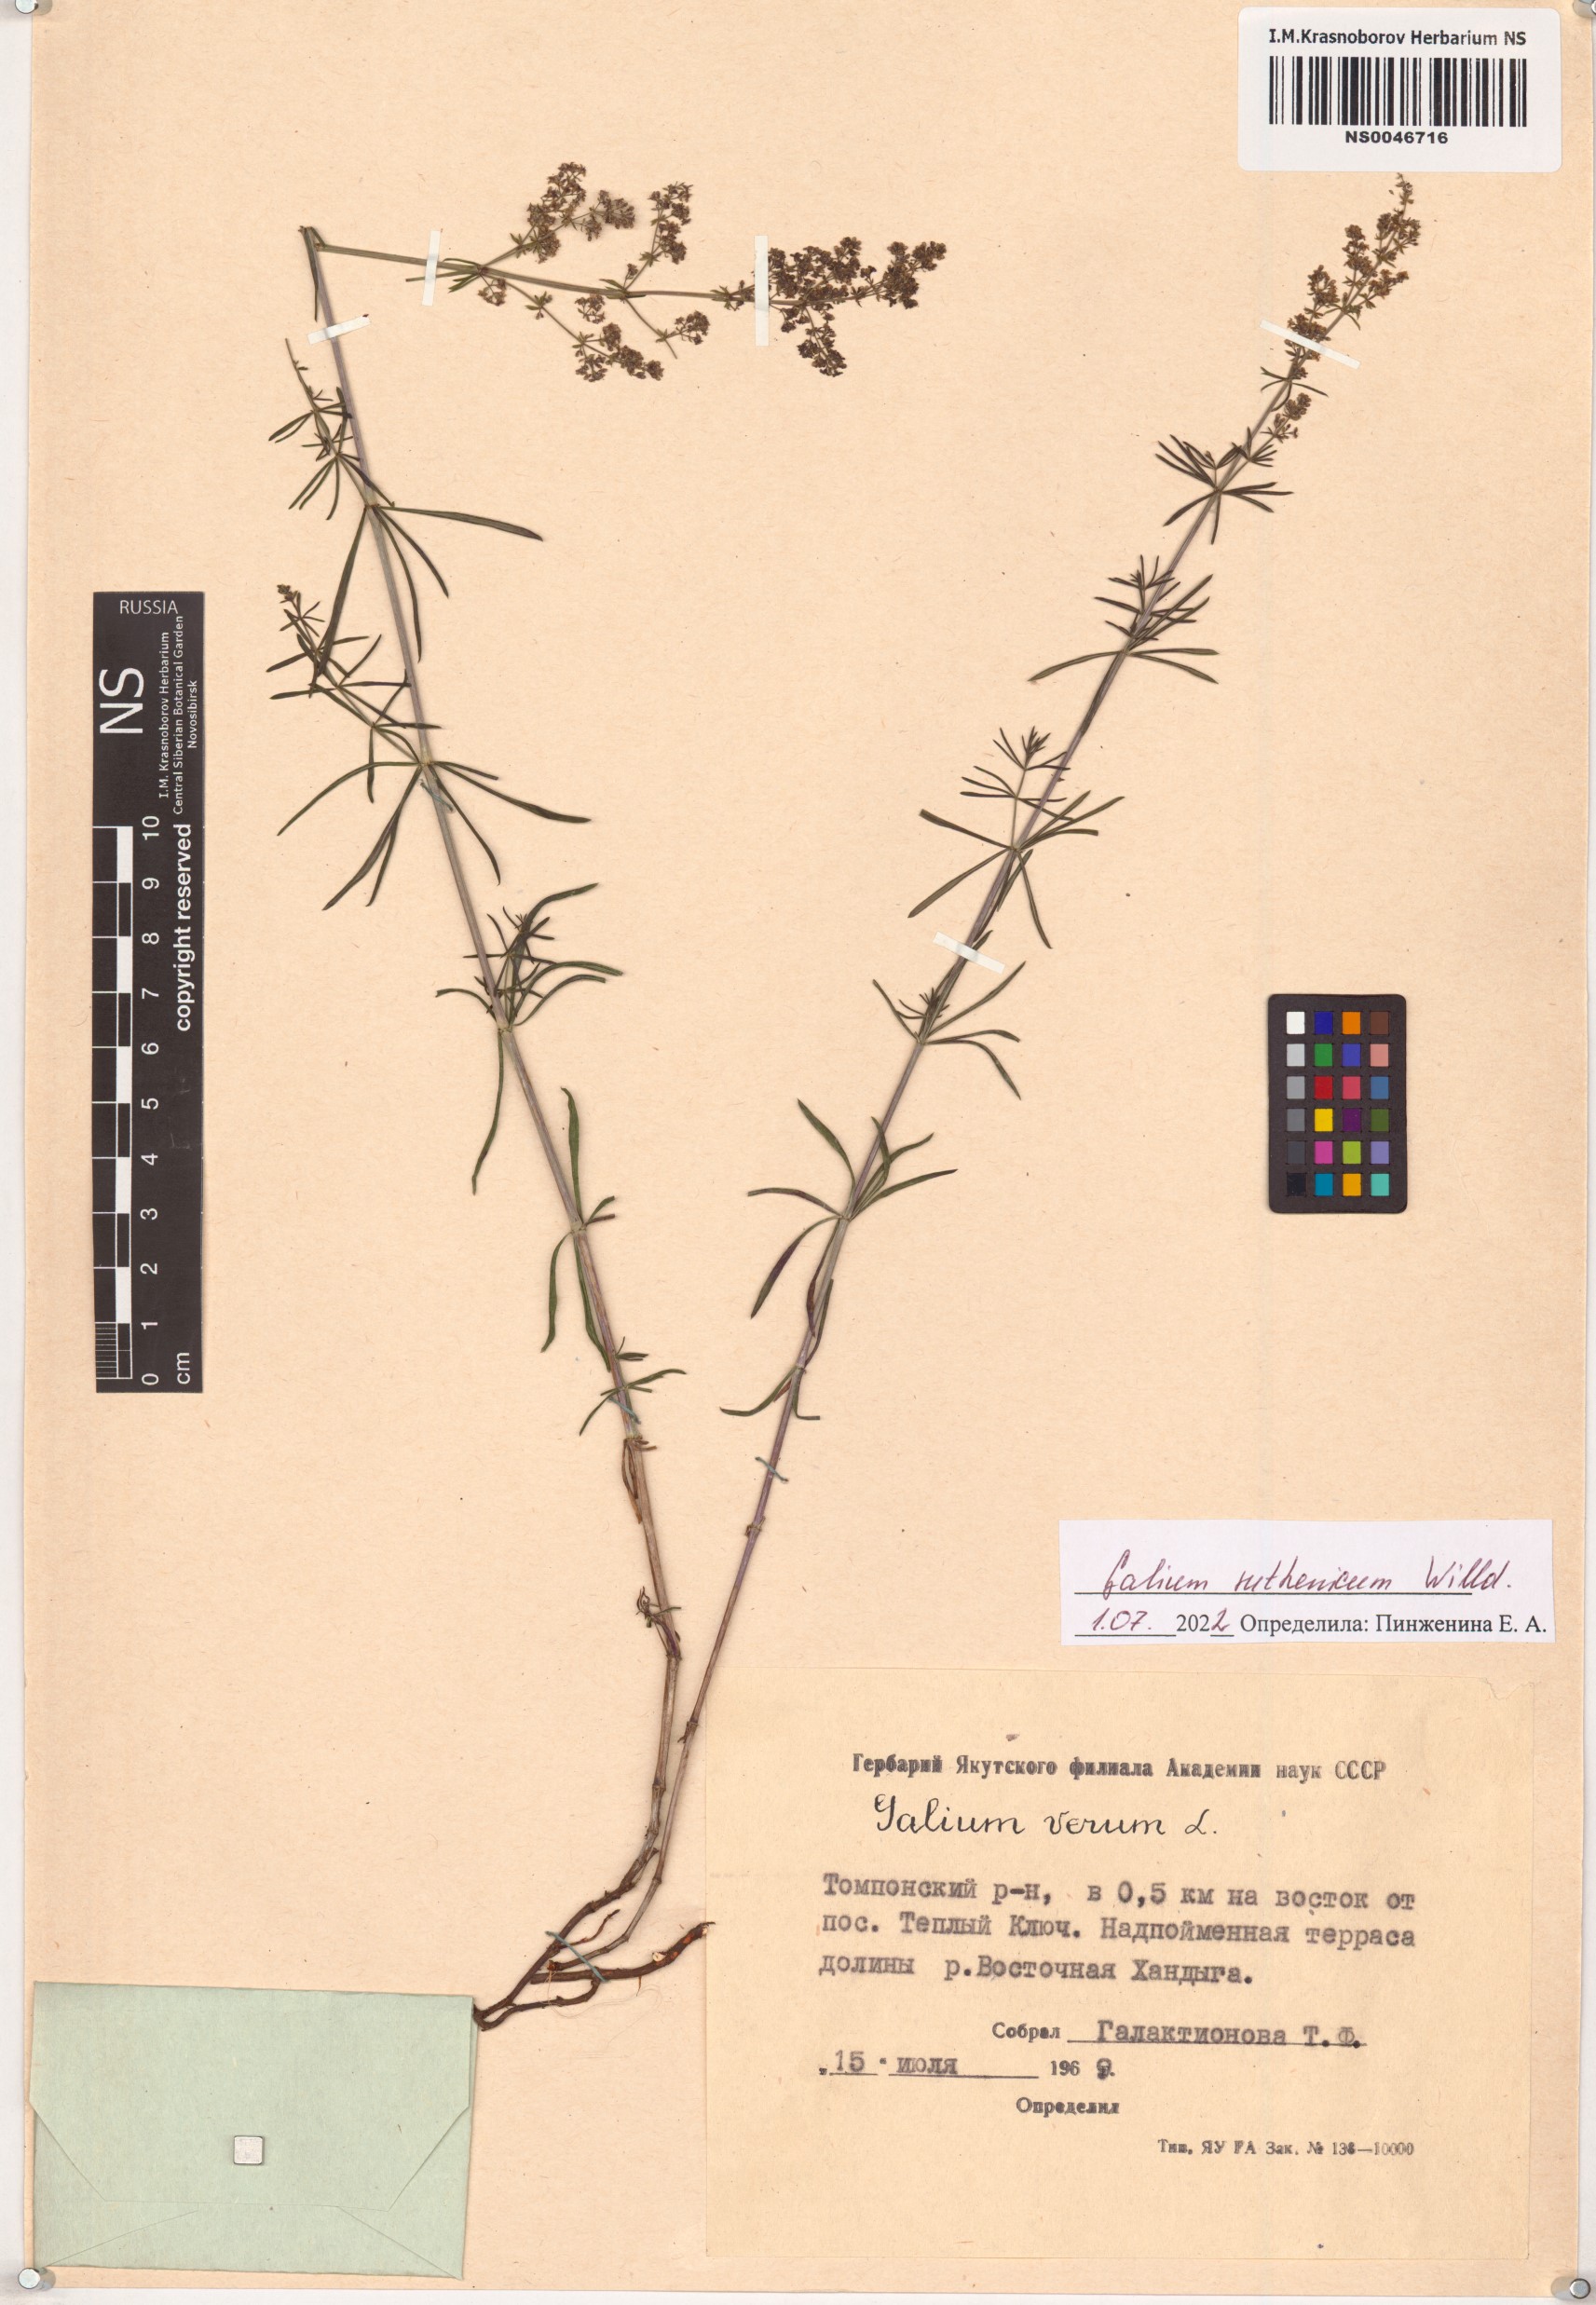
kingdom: Plantae
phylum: Tracheophyta
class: Magnoliopsida
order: Gentianales
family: Rubiaceae
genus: Galium
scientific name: Galium verum
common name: Lady's bedstraw
